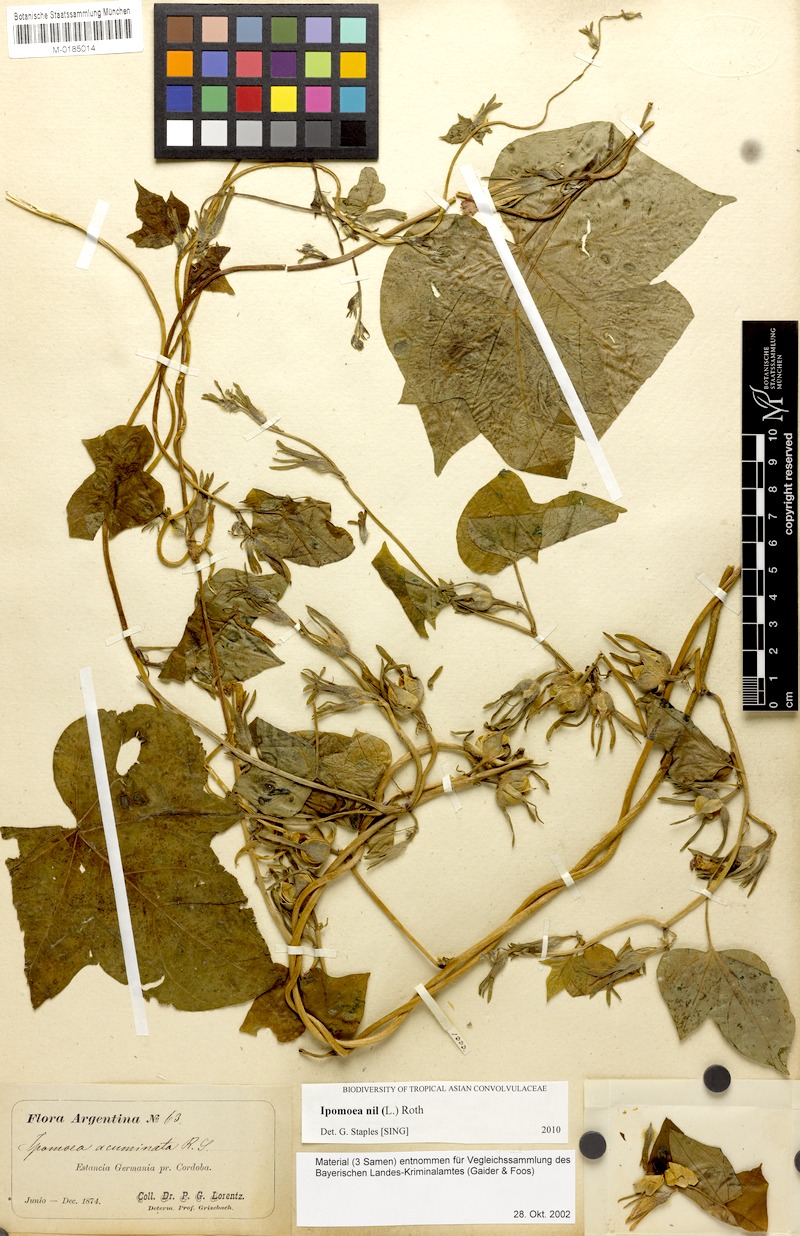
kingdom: Plantae
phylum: Tracheophyta
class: Magnoliopsida
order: Solanales
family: Convolvulaceae
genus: Ipomoea
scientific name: Ipomoea nil
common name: Japanese morning-glory
